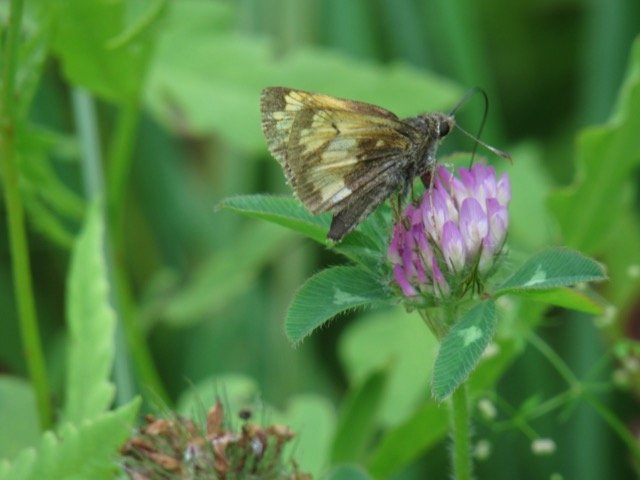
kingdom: Animalia
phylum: Arthropoda
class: Insecta
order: Lepidoptera
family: Hesperiidae
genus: Lon
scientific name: Lon hobomok
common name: Hobomok Skipper
